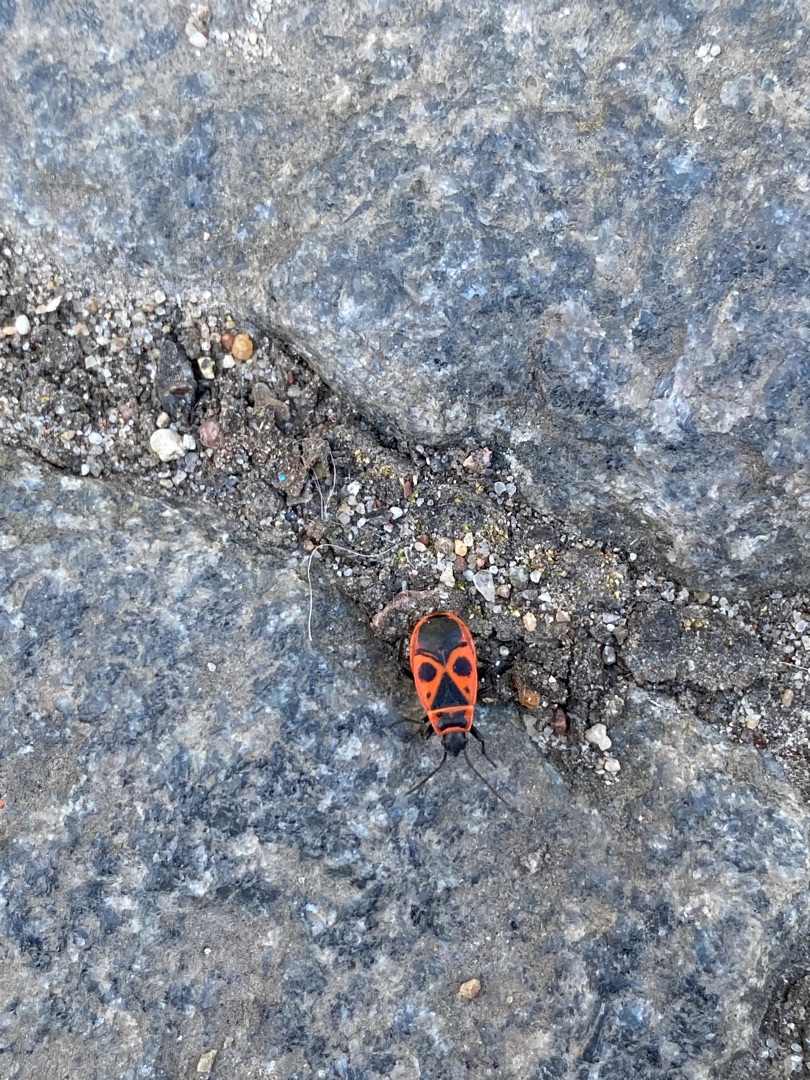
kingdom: Animalia
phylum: Arthropoda
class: Insecta
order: Hemiptera
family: Pyrrhocoridae
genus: Pyrrhocoris
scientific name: Pyrrhocoris apterus
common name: Ildtæge
